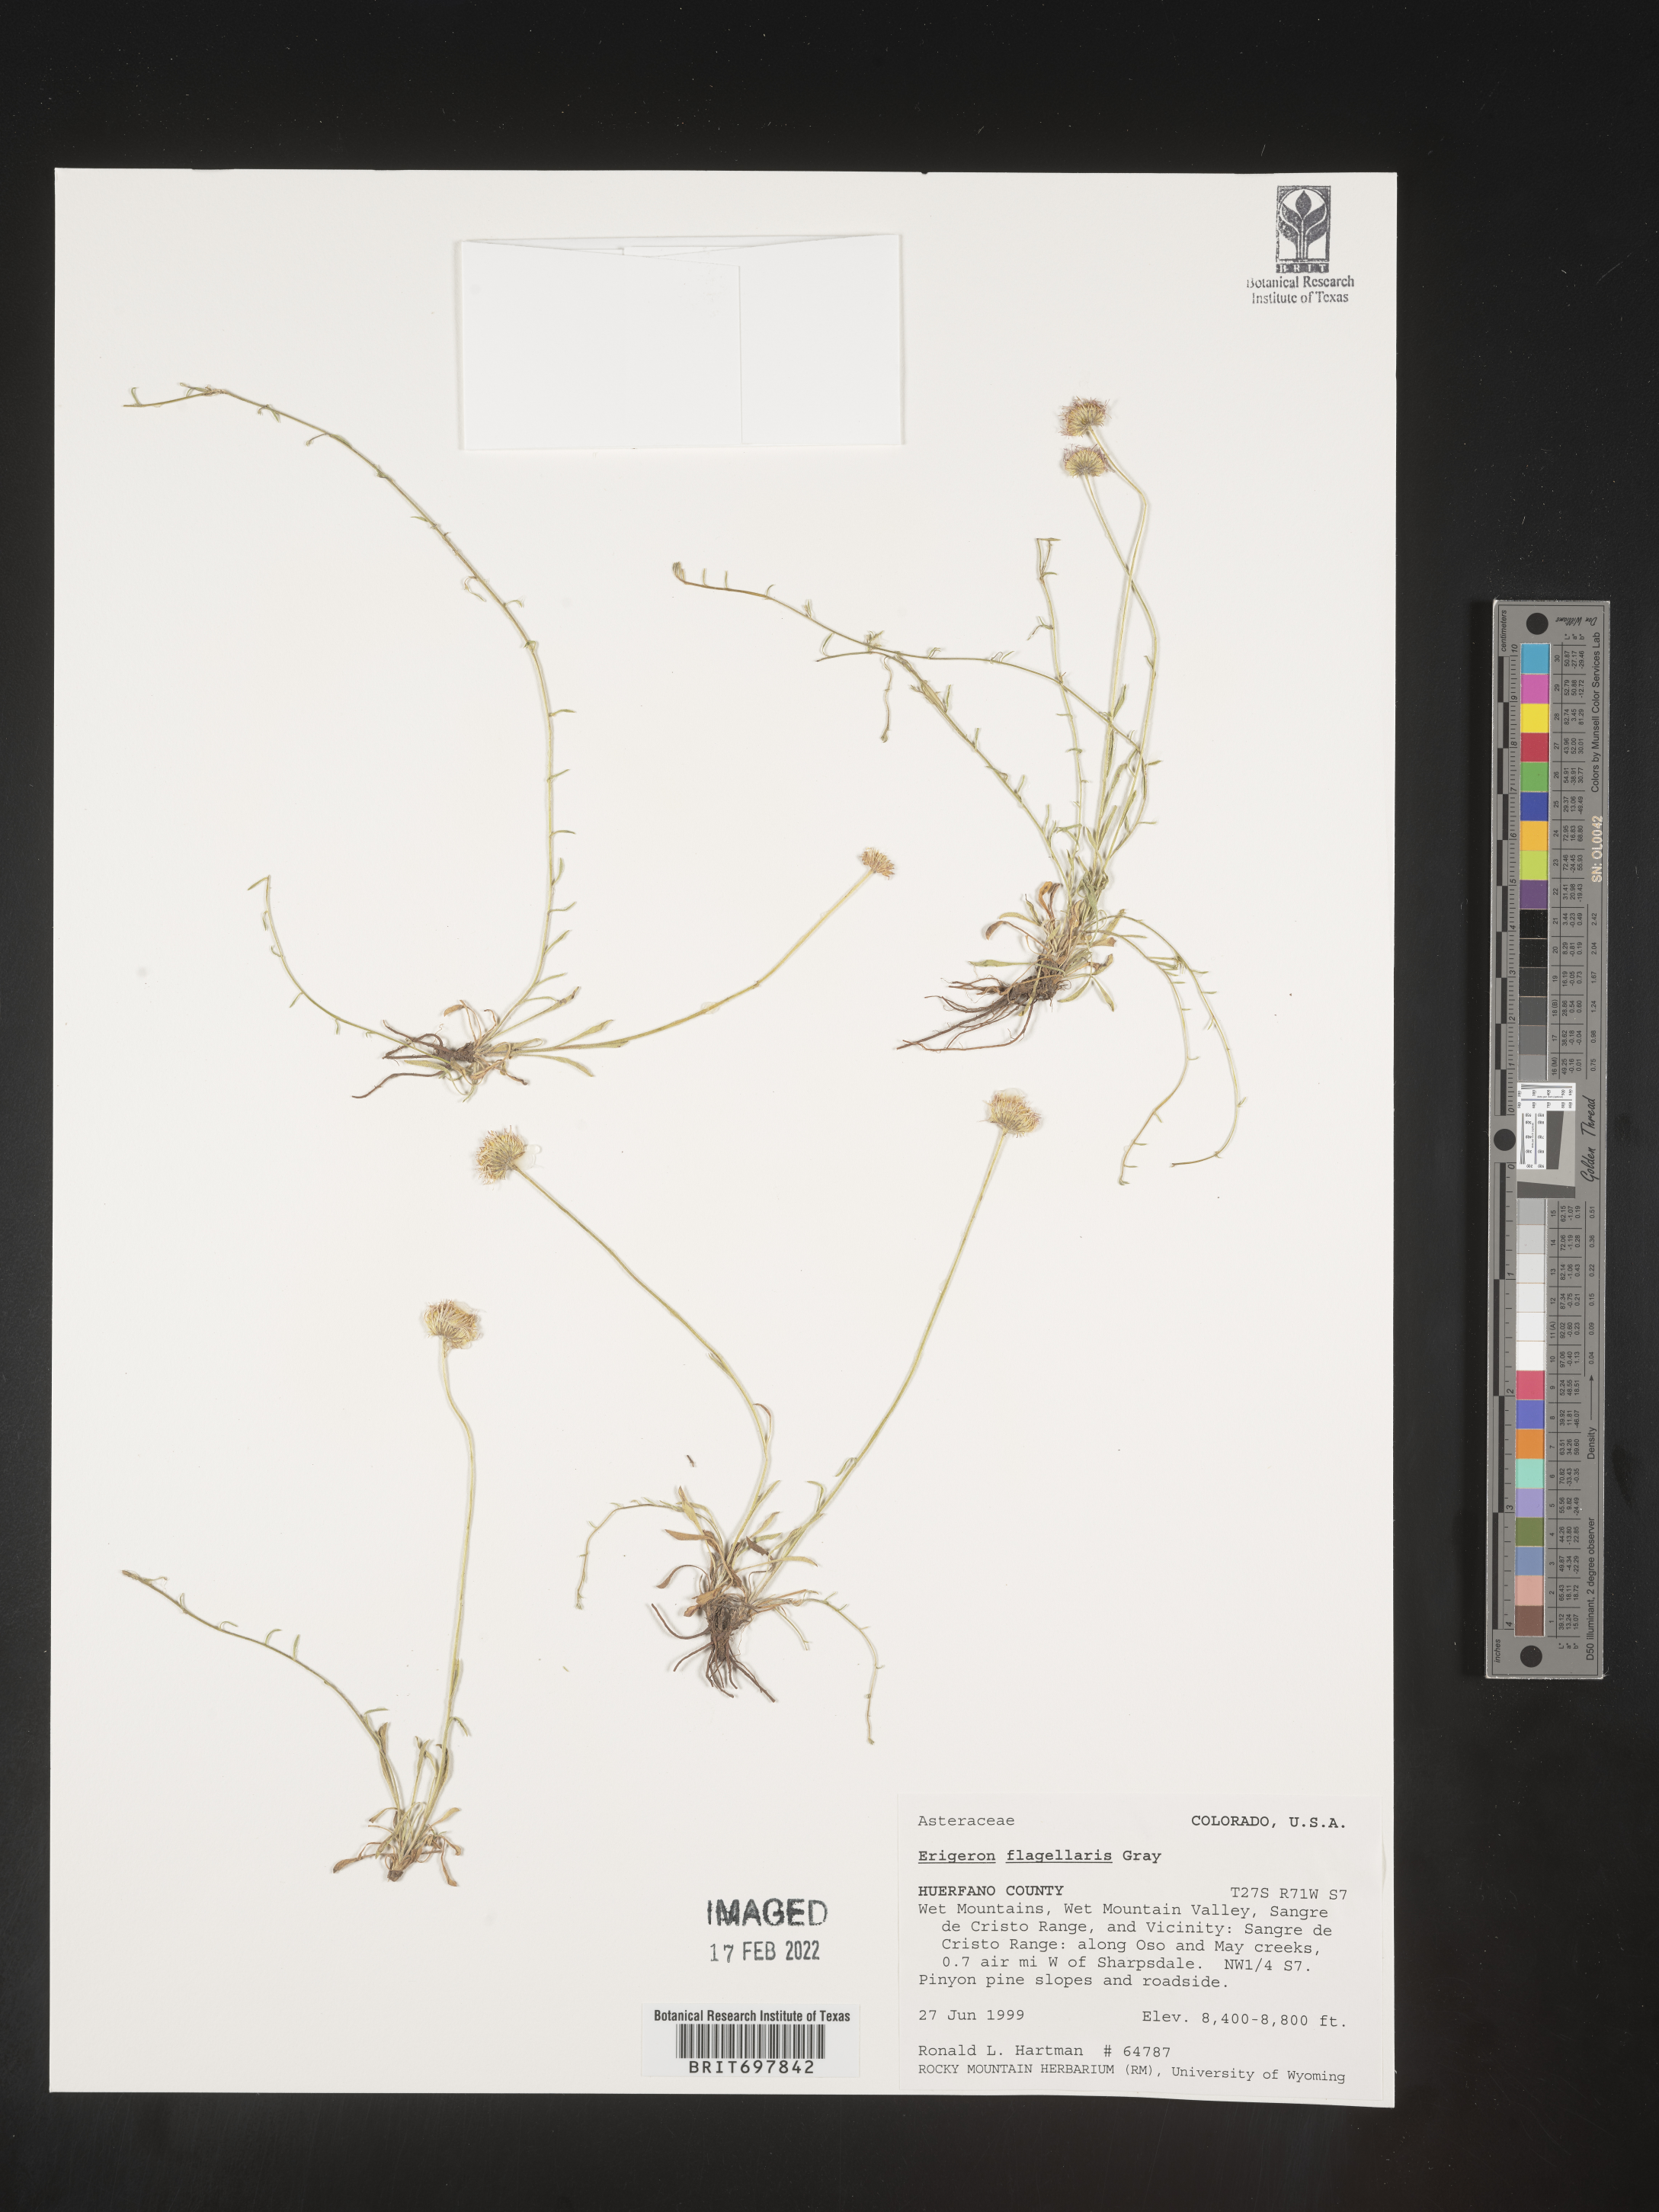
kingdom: Plantae
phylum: Tracheophyta
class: Magnoliopsida
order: Asterales
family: Asteraceae
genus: Erigeron
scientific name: Erigeron flagellaris
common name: Running fleabane
